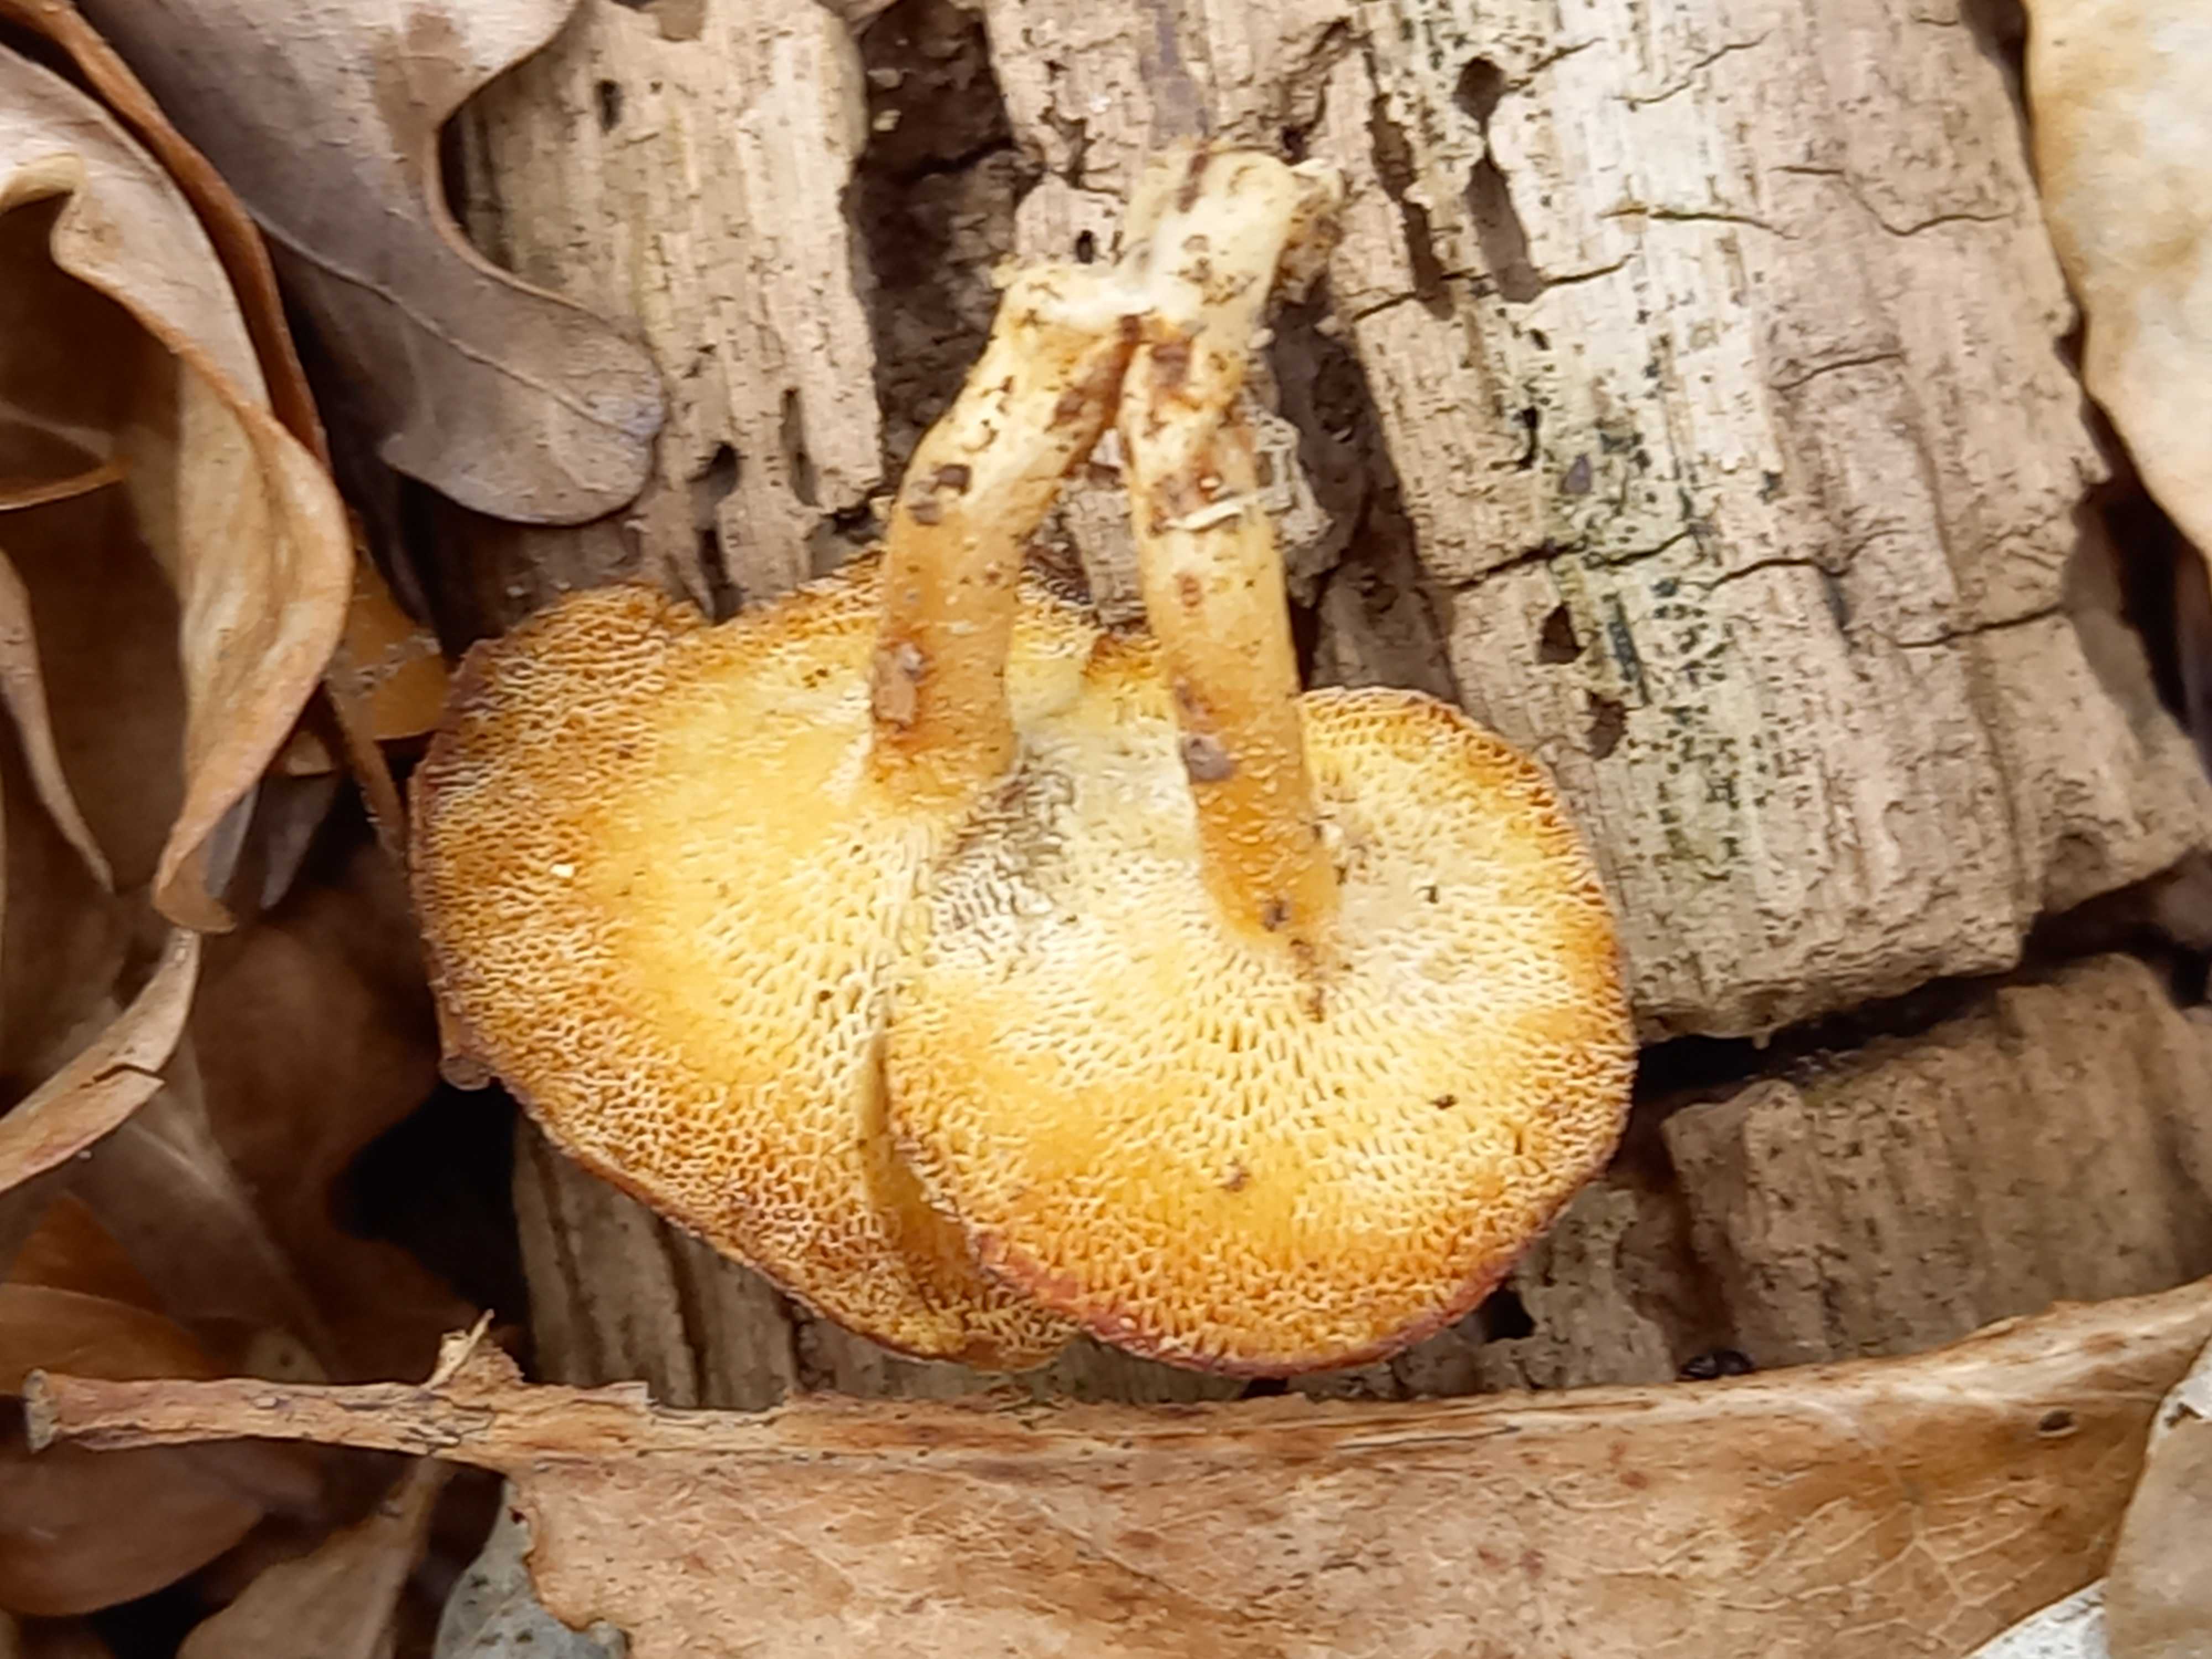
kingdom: Fungi
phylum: Basidiomycota
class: Agaricomycetes
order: Polyporales
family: Polyporaceae
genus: Lentinus
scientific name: Lentinus brumalis
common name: vinter-stilkporesvamp
